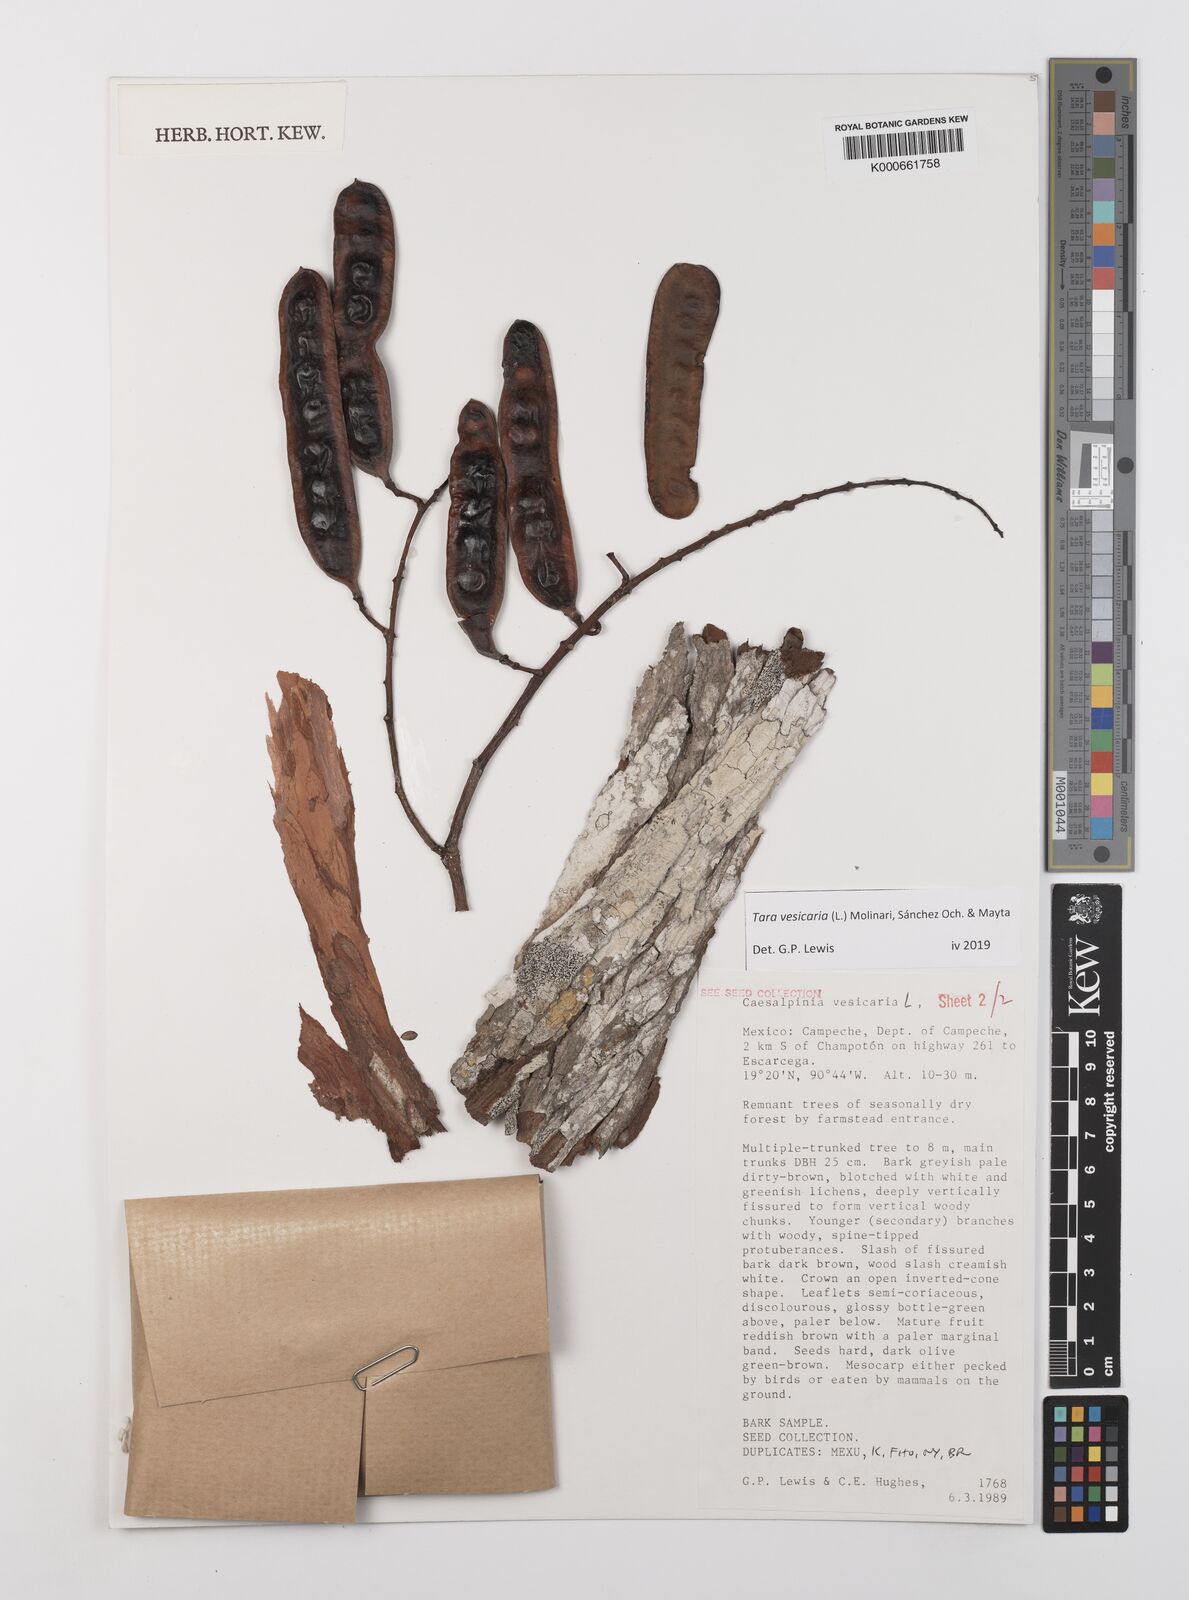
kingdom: Plantae
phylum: Tracheophyta
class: Magnoliopsida
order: Fabales
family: Fabaceae
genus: Tara
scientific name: Tara vesicaria
